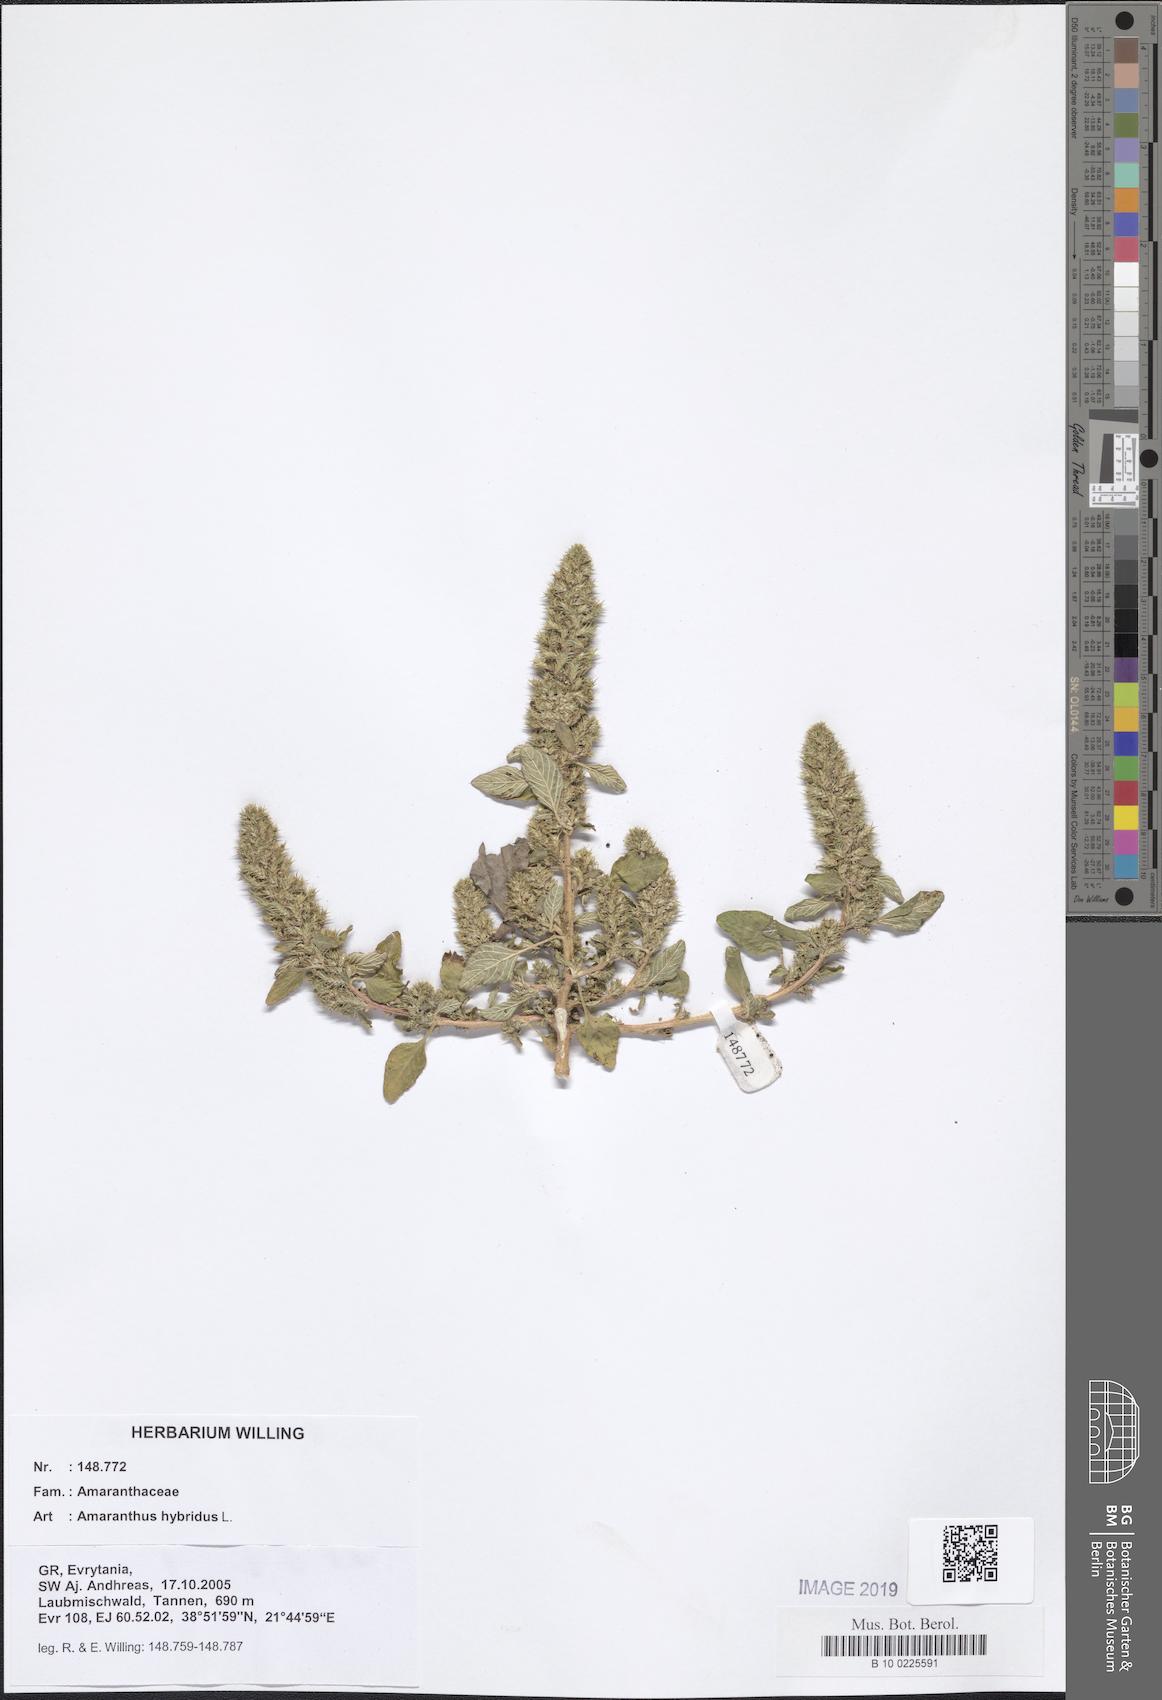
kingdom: Plantae
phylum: Tracheophyta
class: Magnoliopsida
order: Caryophyllales
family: Amaranthaceae
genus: Amaranthus
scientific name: Amaranthus hybridus
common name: Green amaranth
